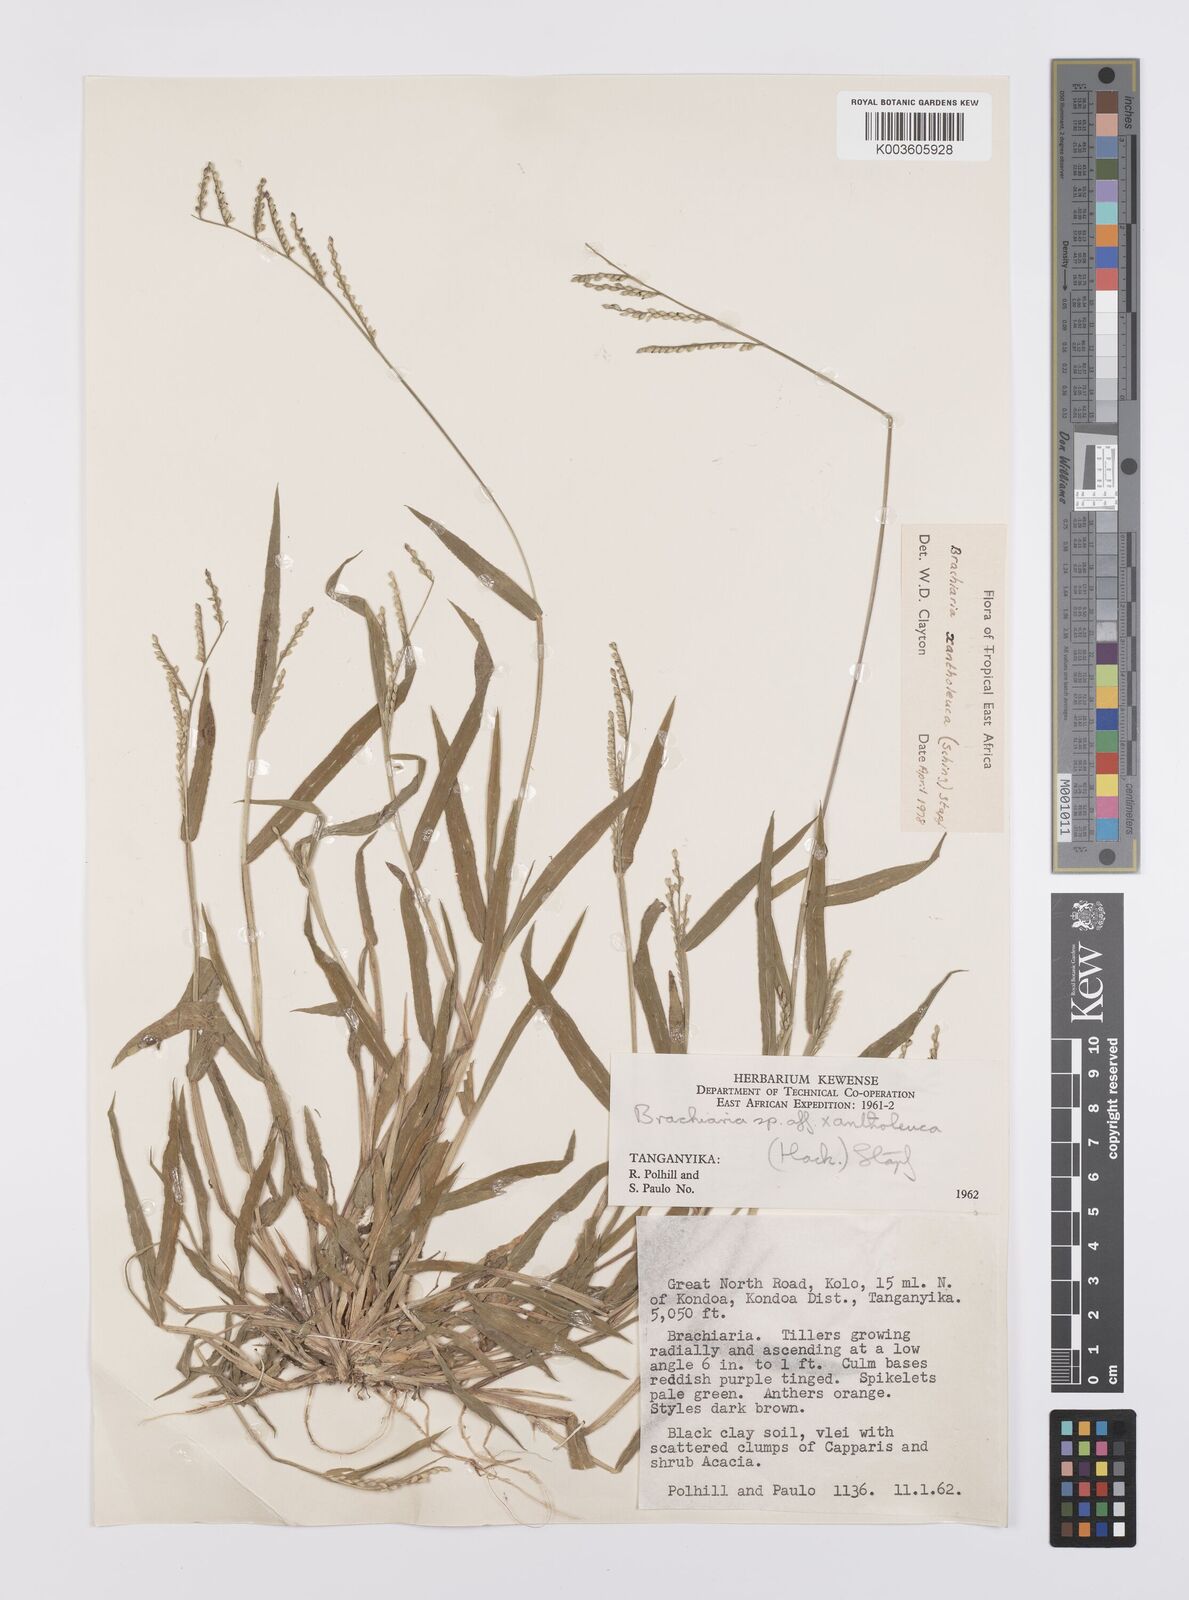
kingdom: Plantae
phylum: Tracheophyta
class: Liliopsida
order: Poales
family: Poaceae
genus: Urochloa
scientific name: Urochloa xantholeuca
